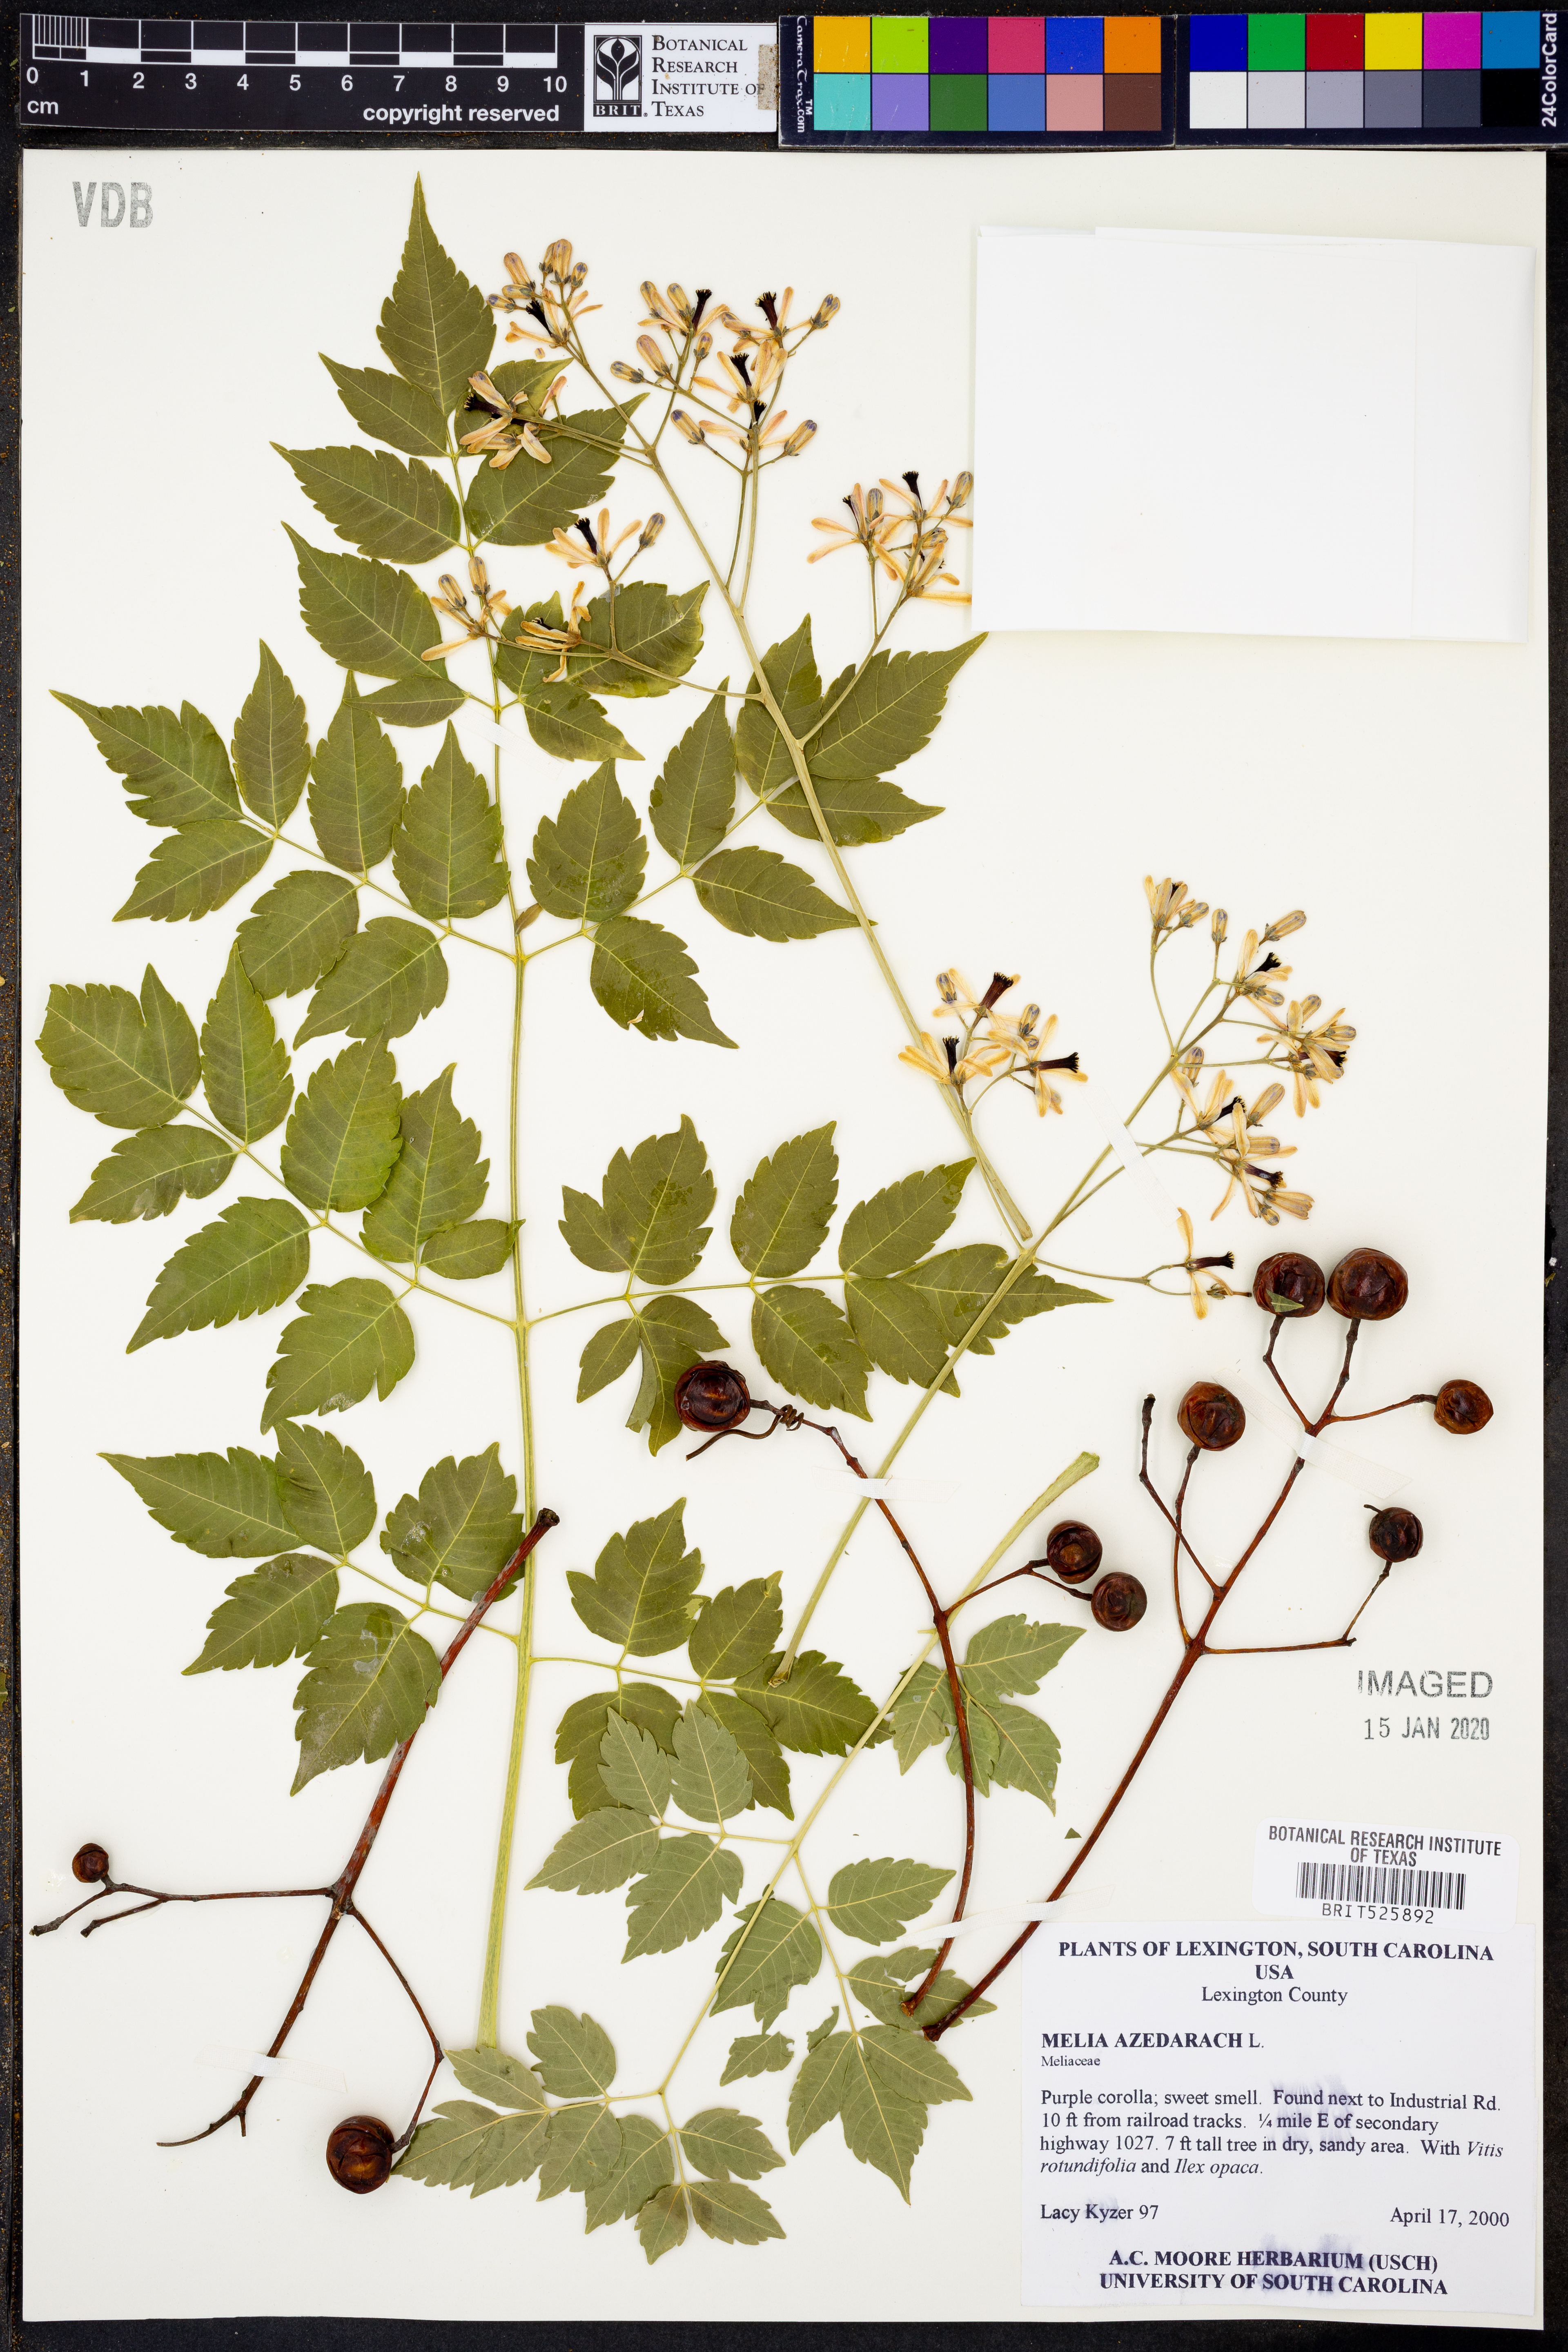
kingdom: Plantae
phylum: Tracheophyta
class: Magnoliopsida
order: Sapindales
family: Meliaceae
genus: Melia
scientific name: Melia azedarach
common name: Chinaberrytree
